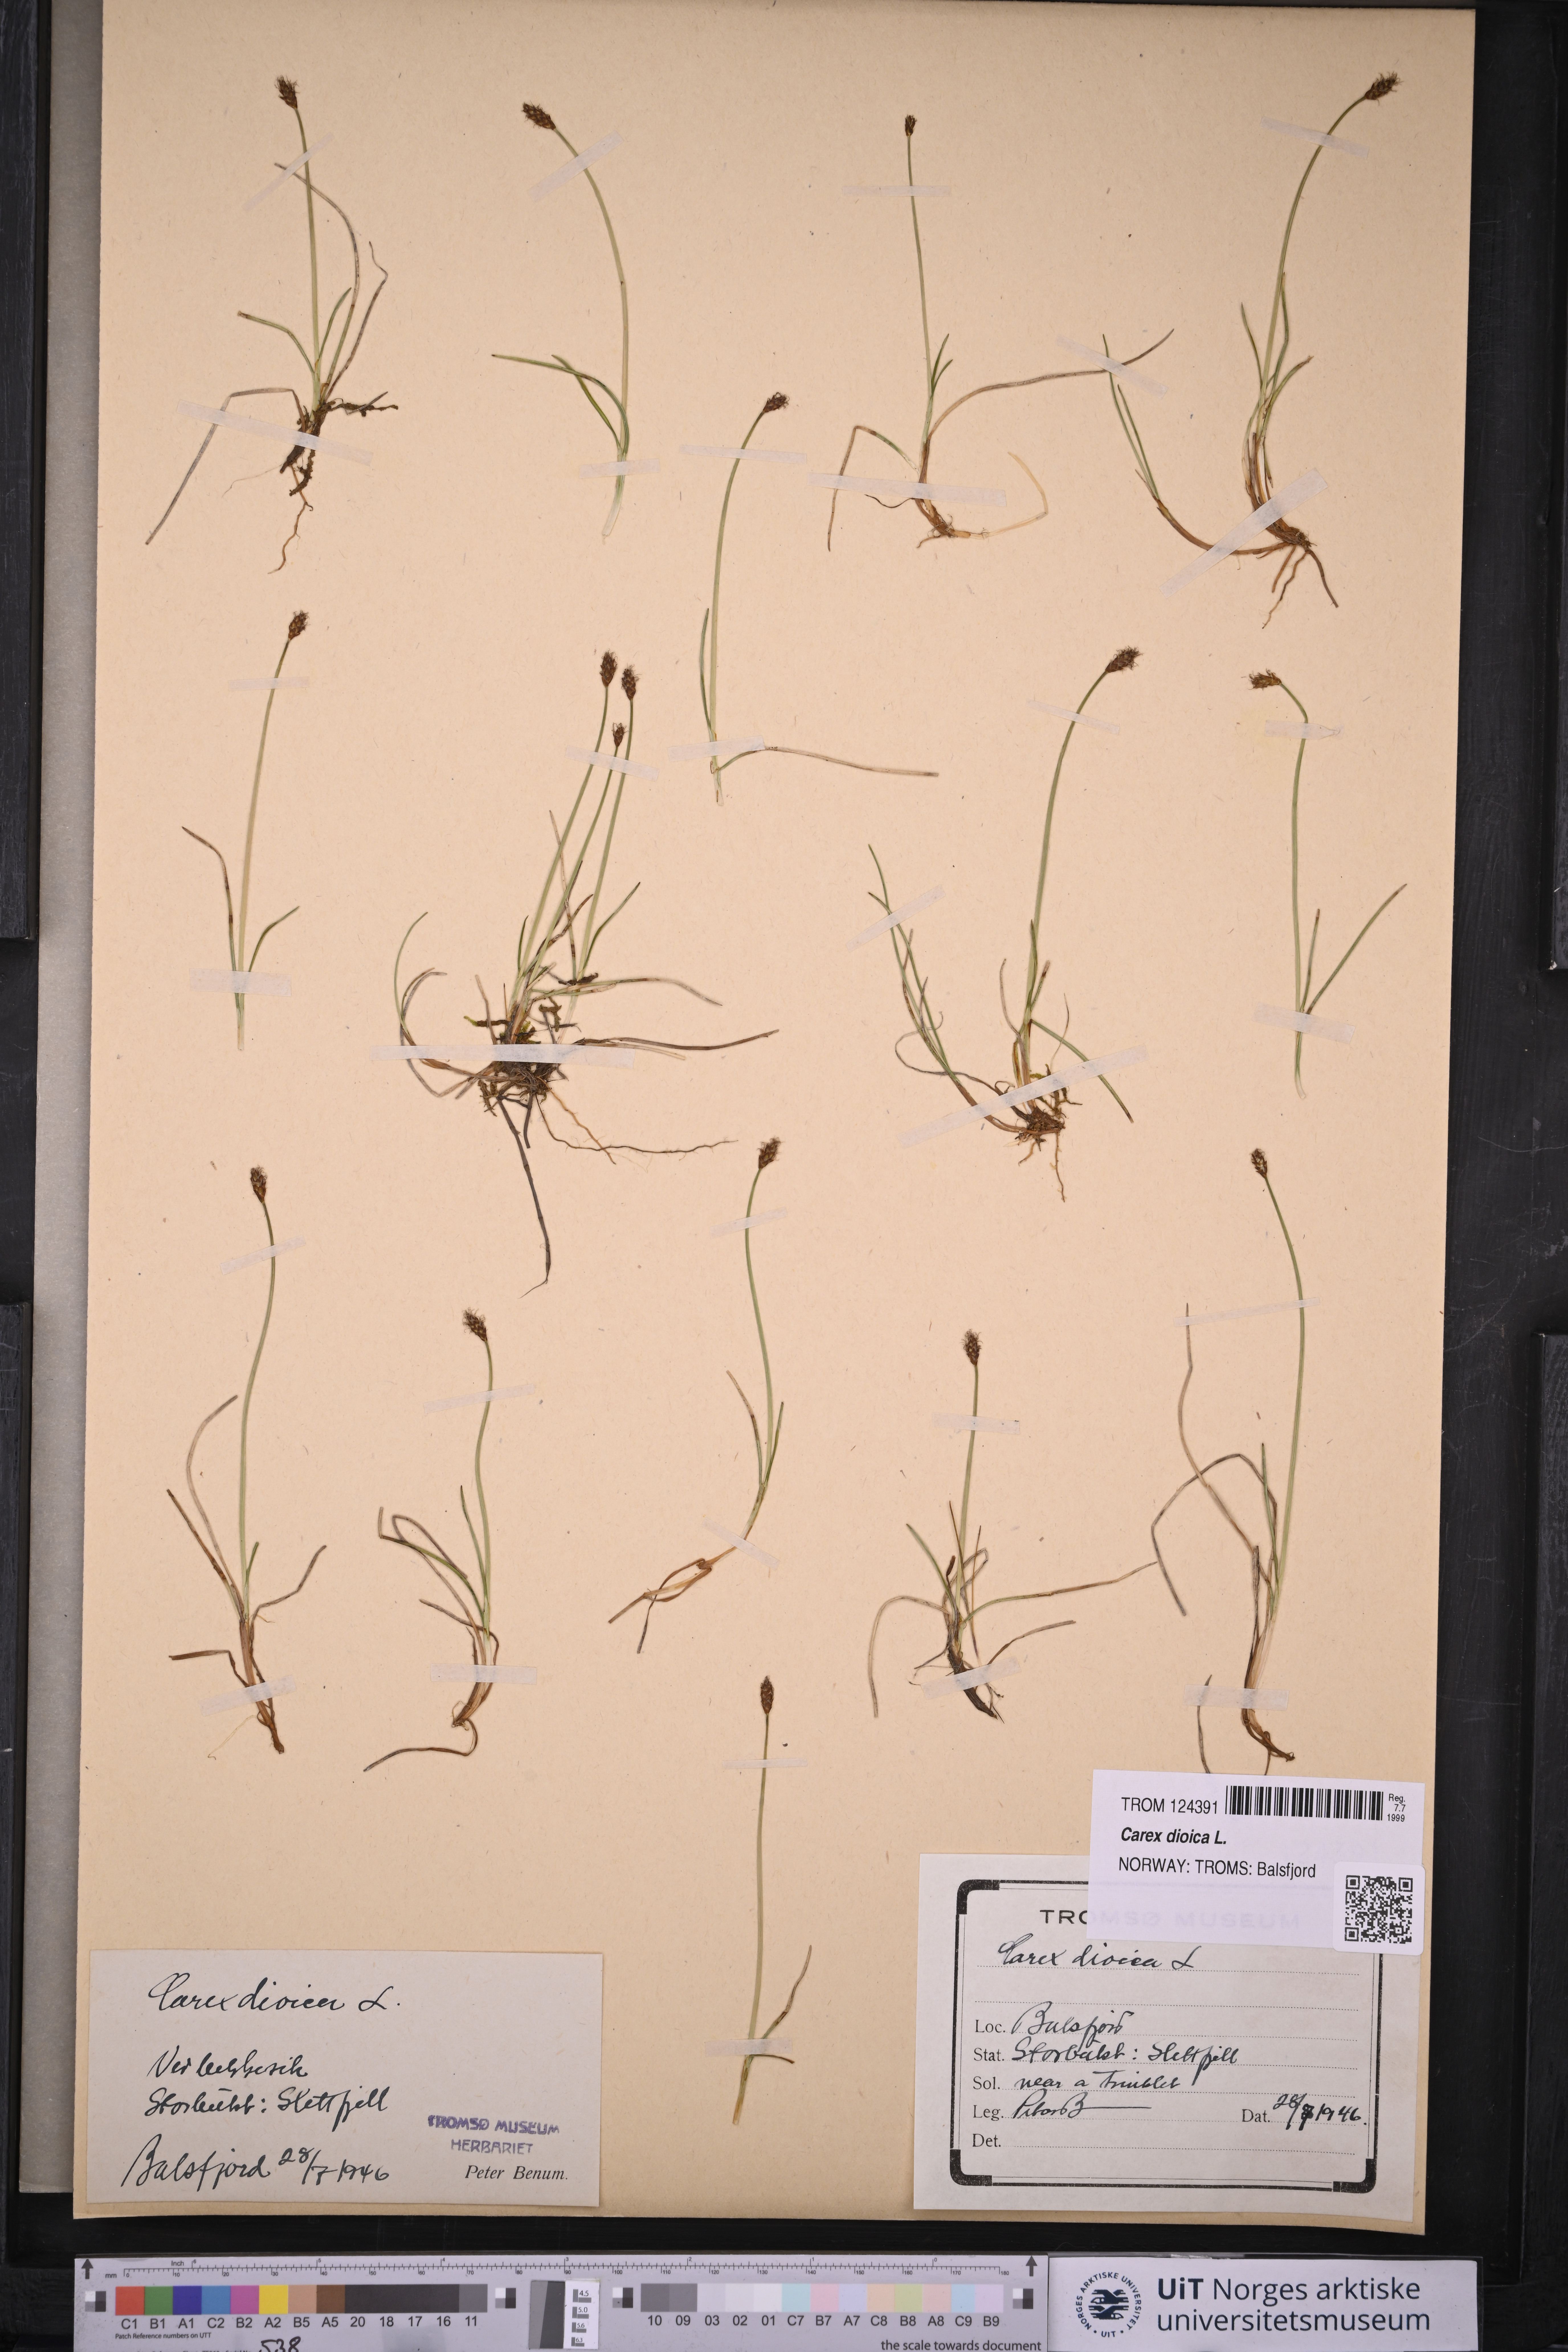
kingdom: Plantae
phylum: Tracheophyta
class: Liliopsida
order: Poales
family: Cyperaceae
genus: Carex
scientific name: Carex dioica
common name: Dioecious sedge
